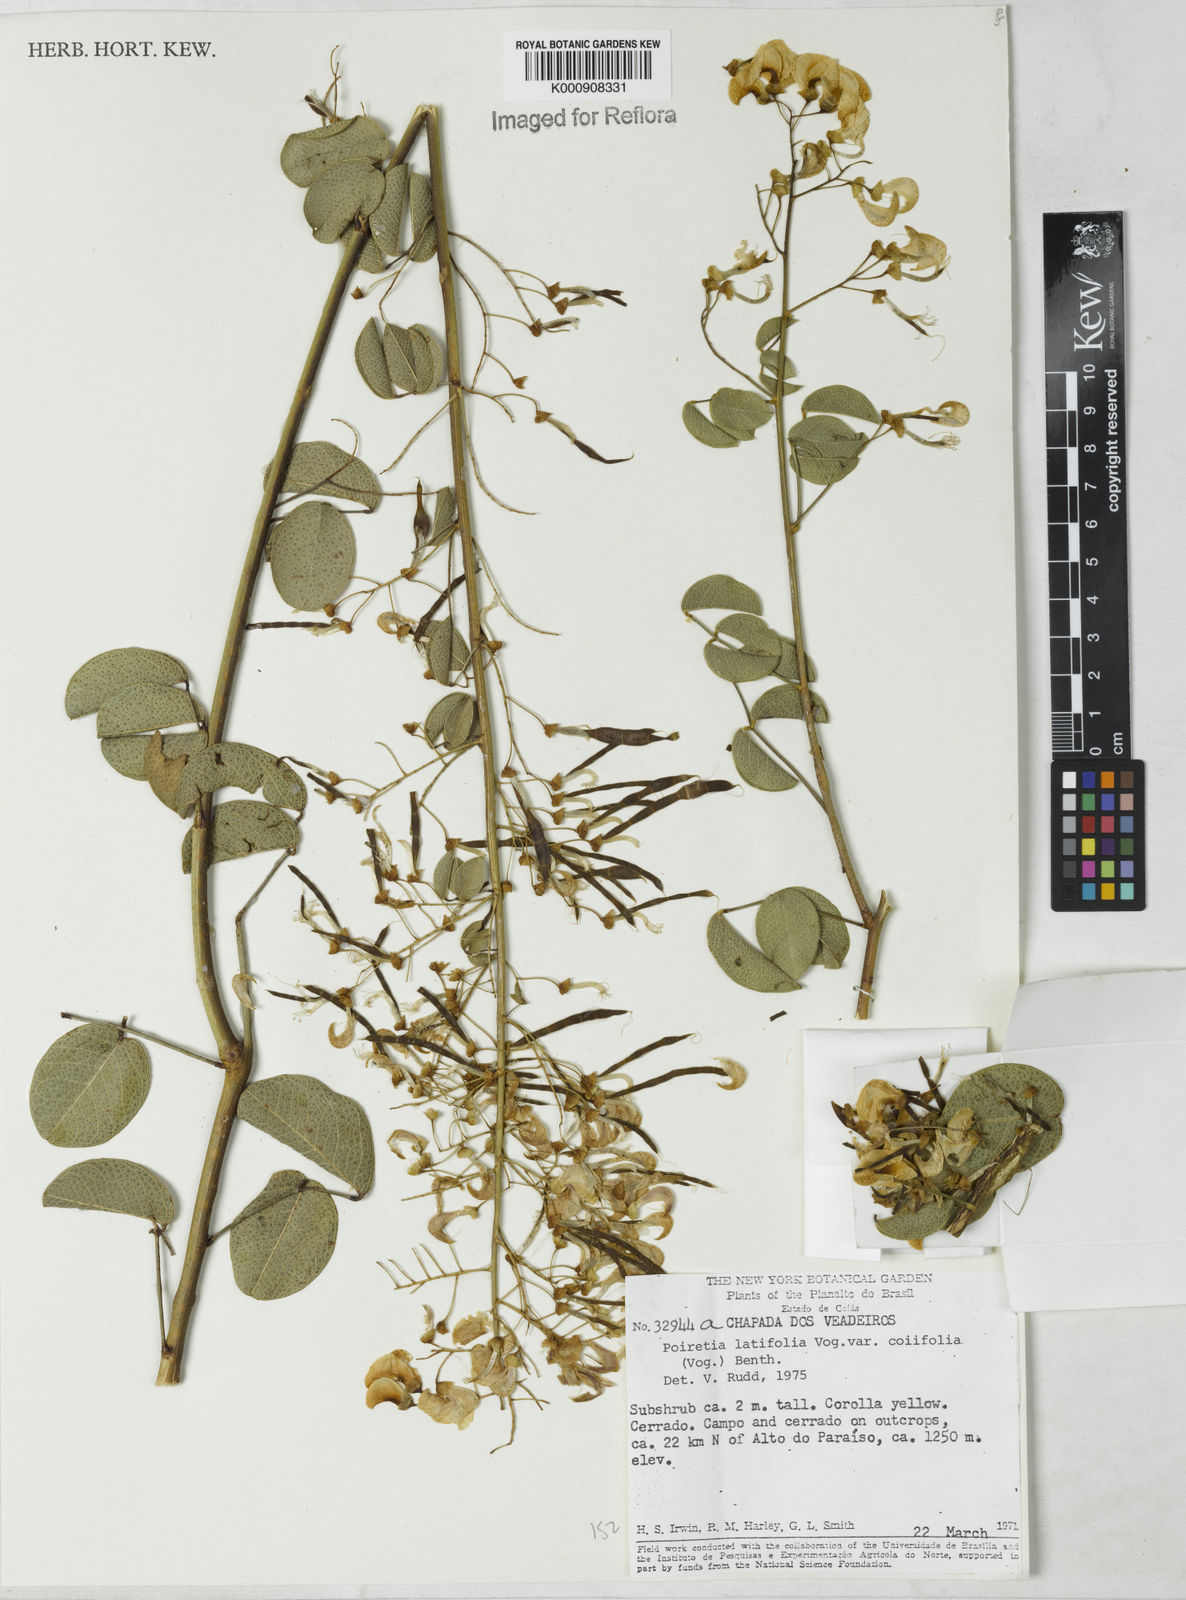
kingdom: Plantae
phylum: Tracheophyta
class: Magnoliopsida
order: Fabales
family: Fabaceae
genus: Poiretia
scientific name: Poiretia coriifolia
